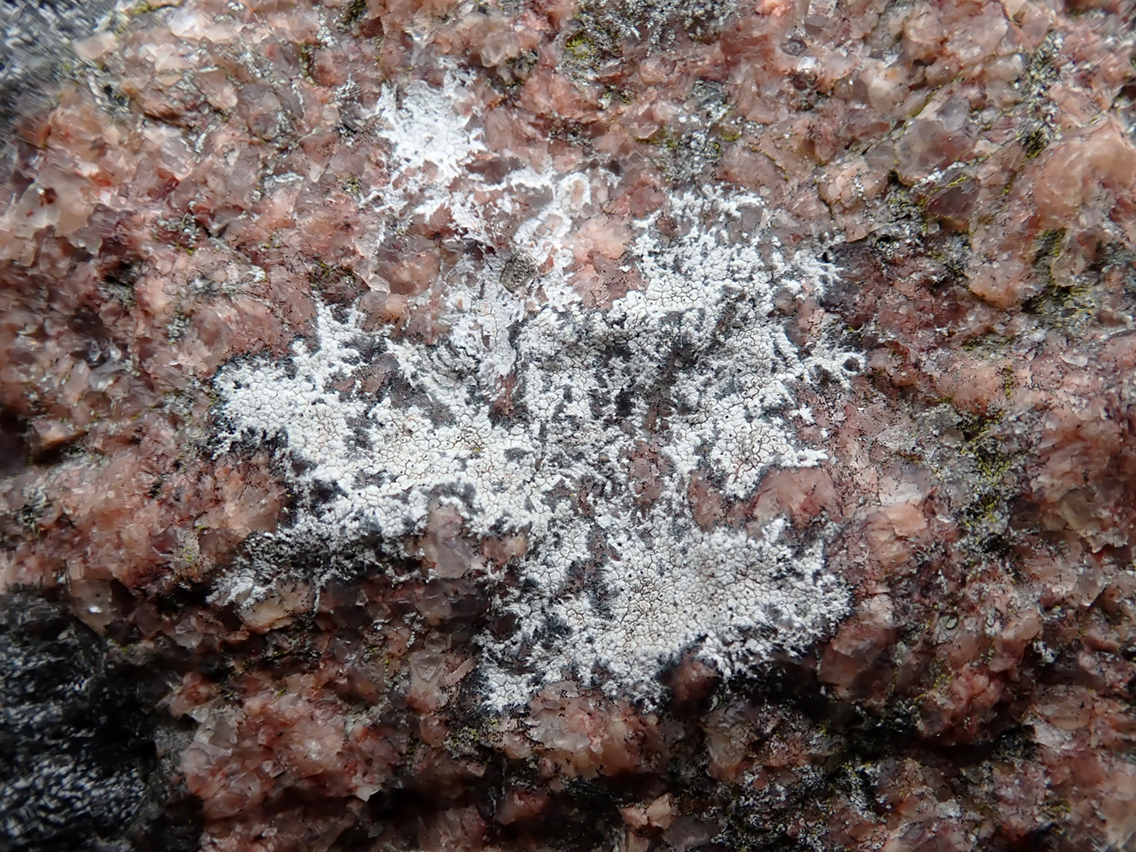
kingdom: Fungi
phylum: Ascomycota
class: Lecanoromycetes
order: Lecanorales
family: Parmeliaceae
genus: Lichen
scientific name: Lichen
